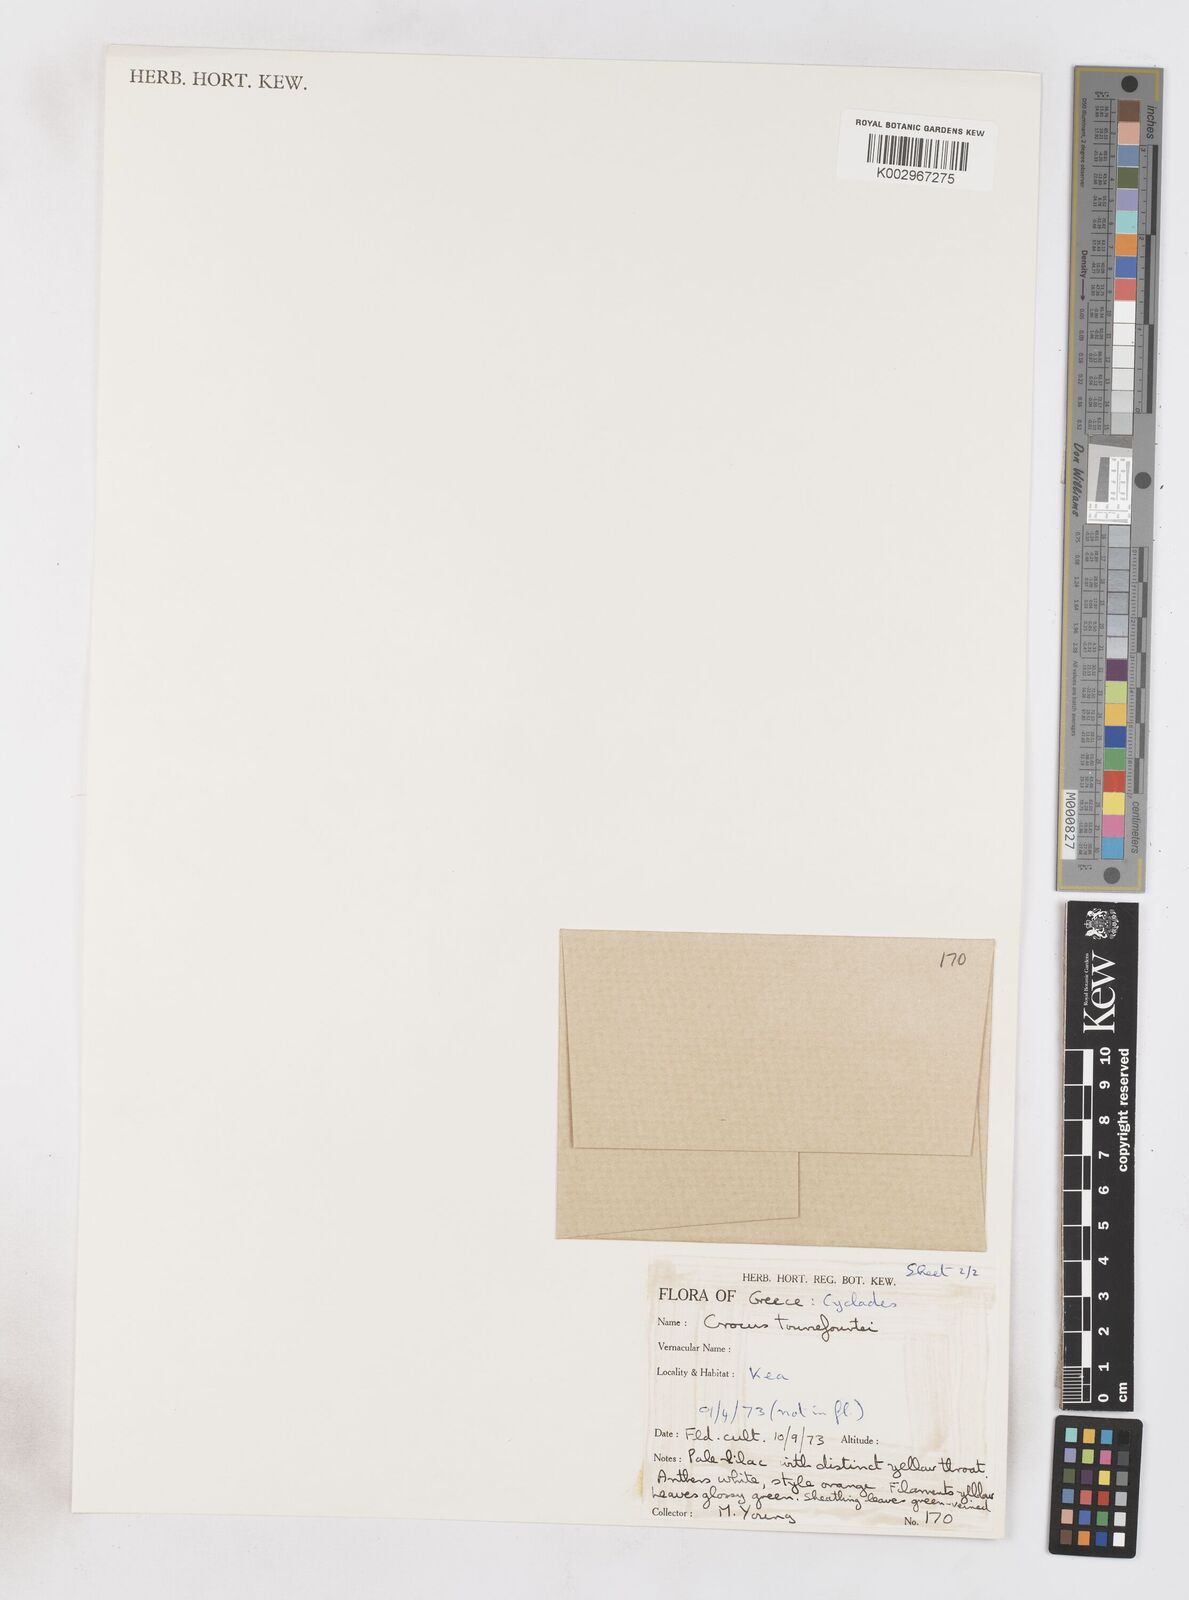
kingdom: Plantae
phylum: Tracheophyta
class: Liliopsida
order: Asparagales
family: Iridaceae
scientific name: Iridaceae
